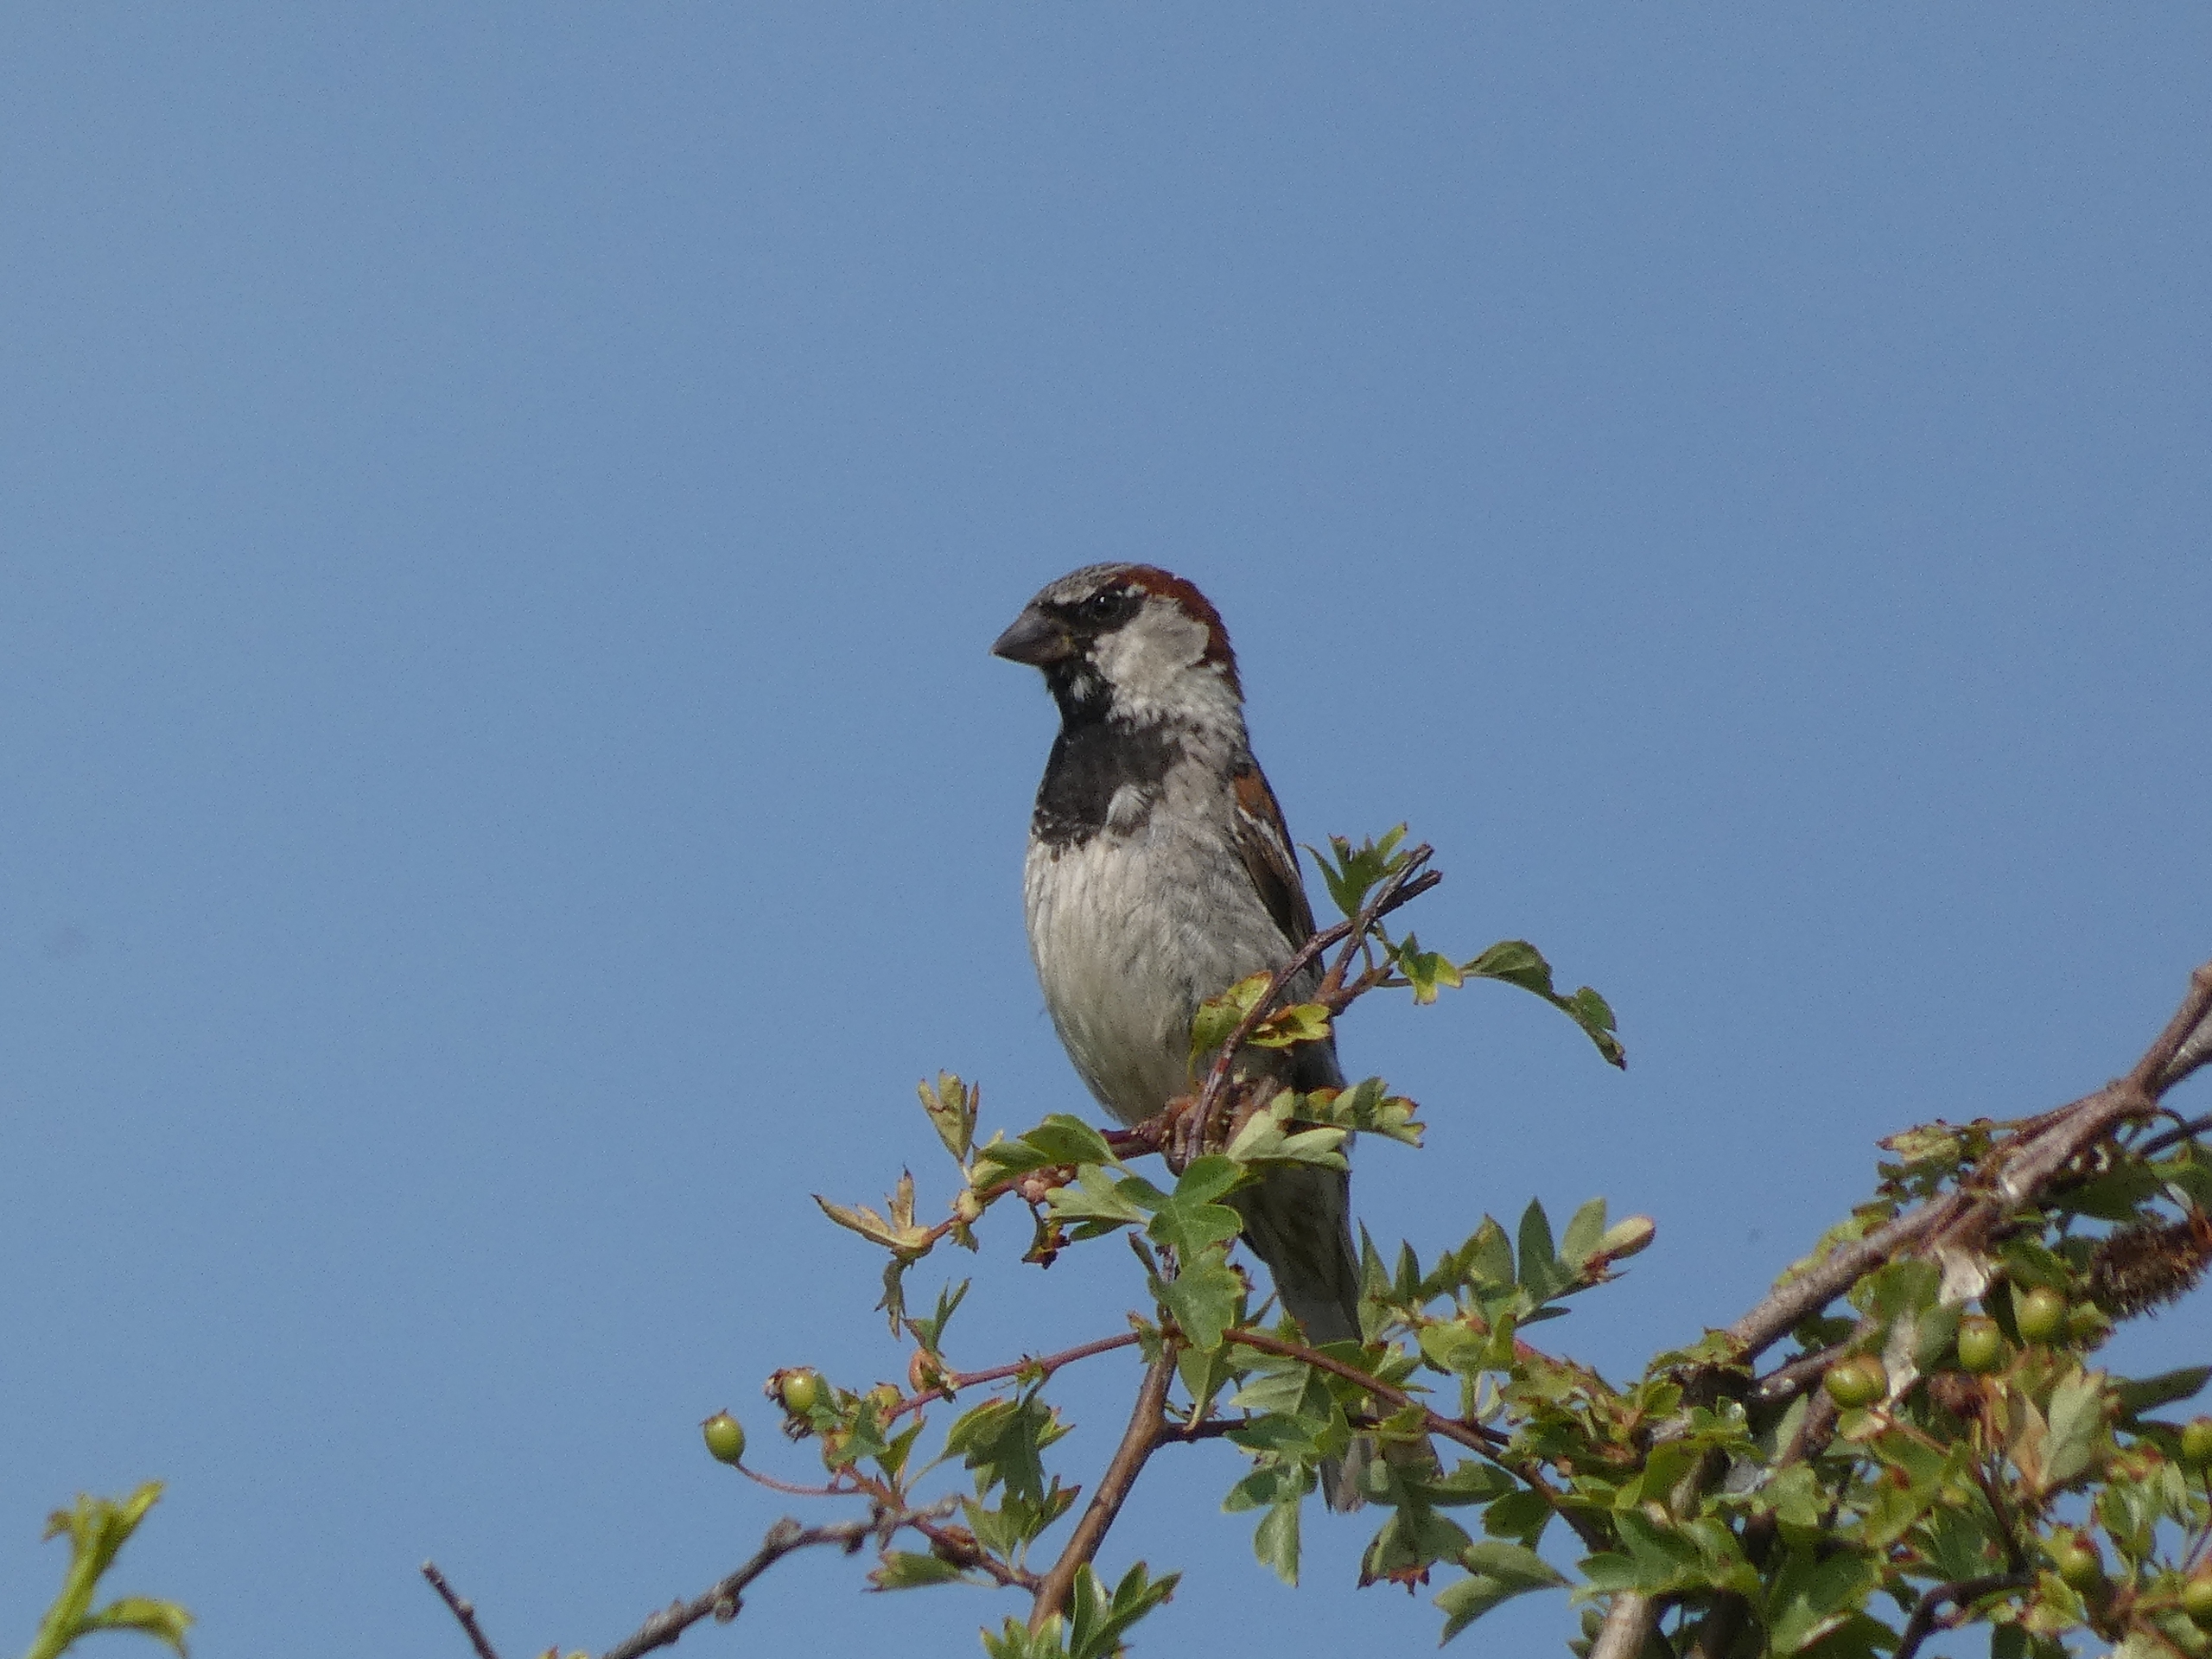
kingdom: Animalia
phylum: Chordata
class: Aves
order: Passeriformes
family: Passeridae
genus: Passer
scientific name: Passer domesticus
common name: Gråspurv
